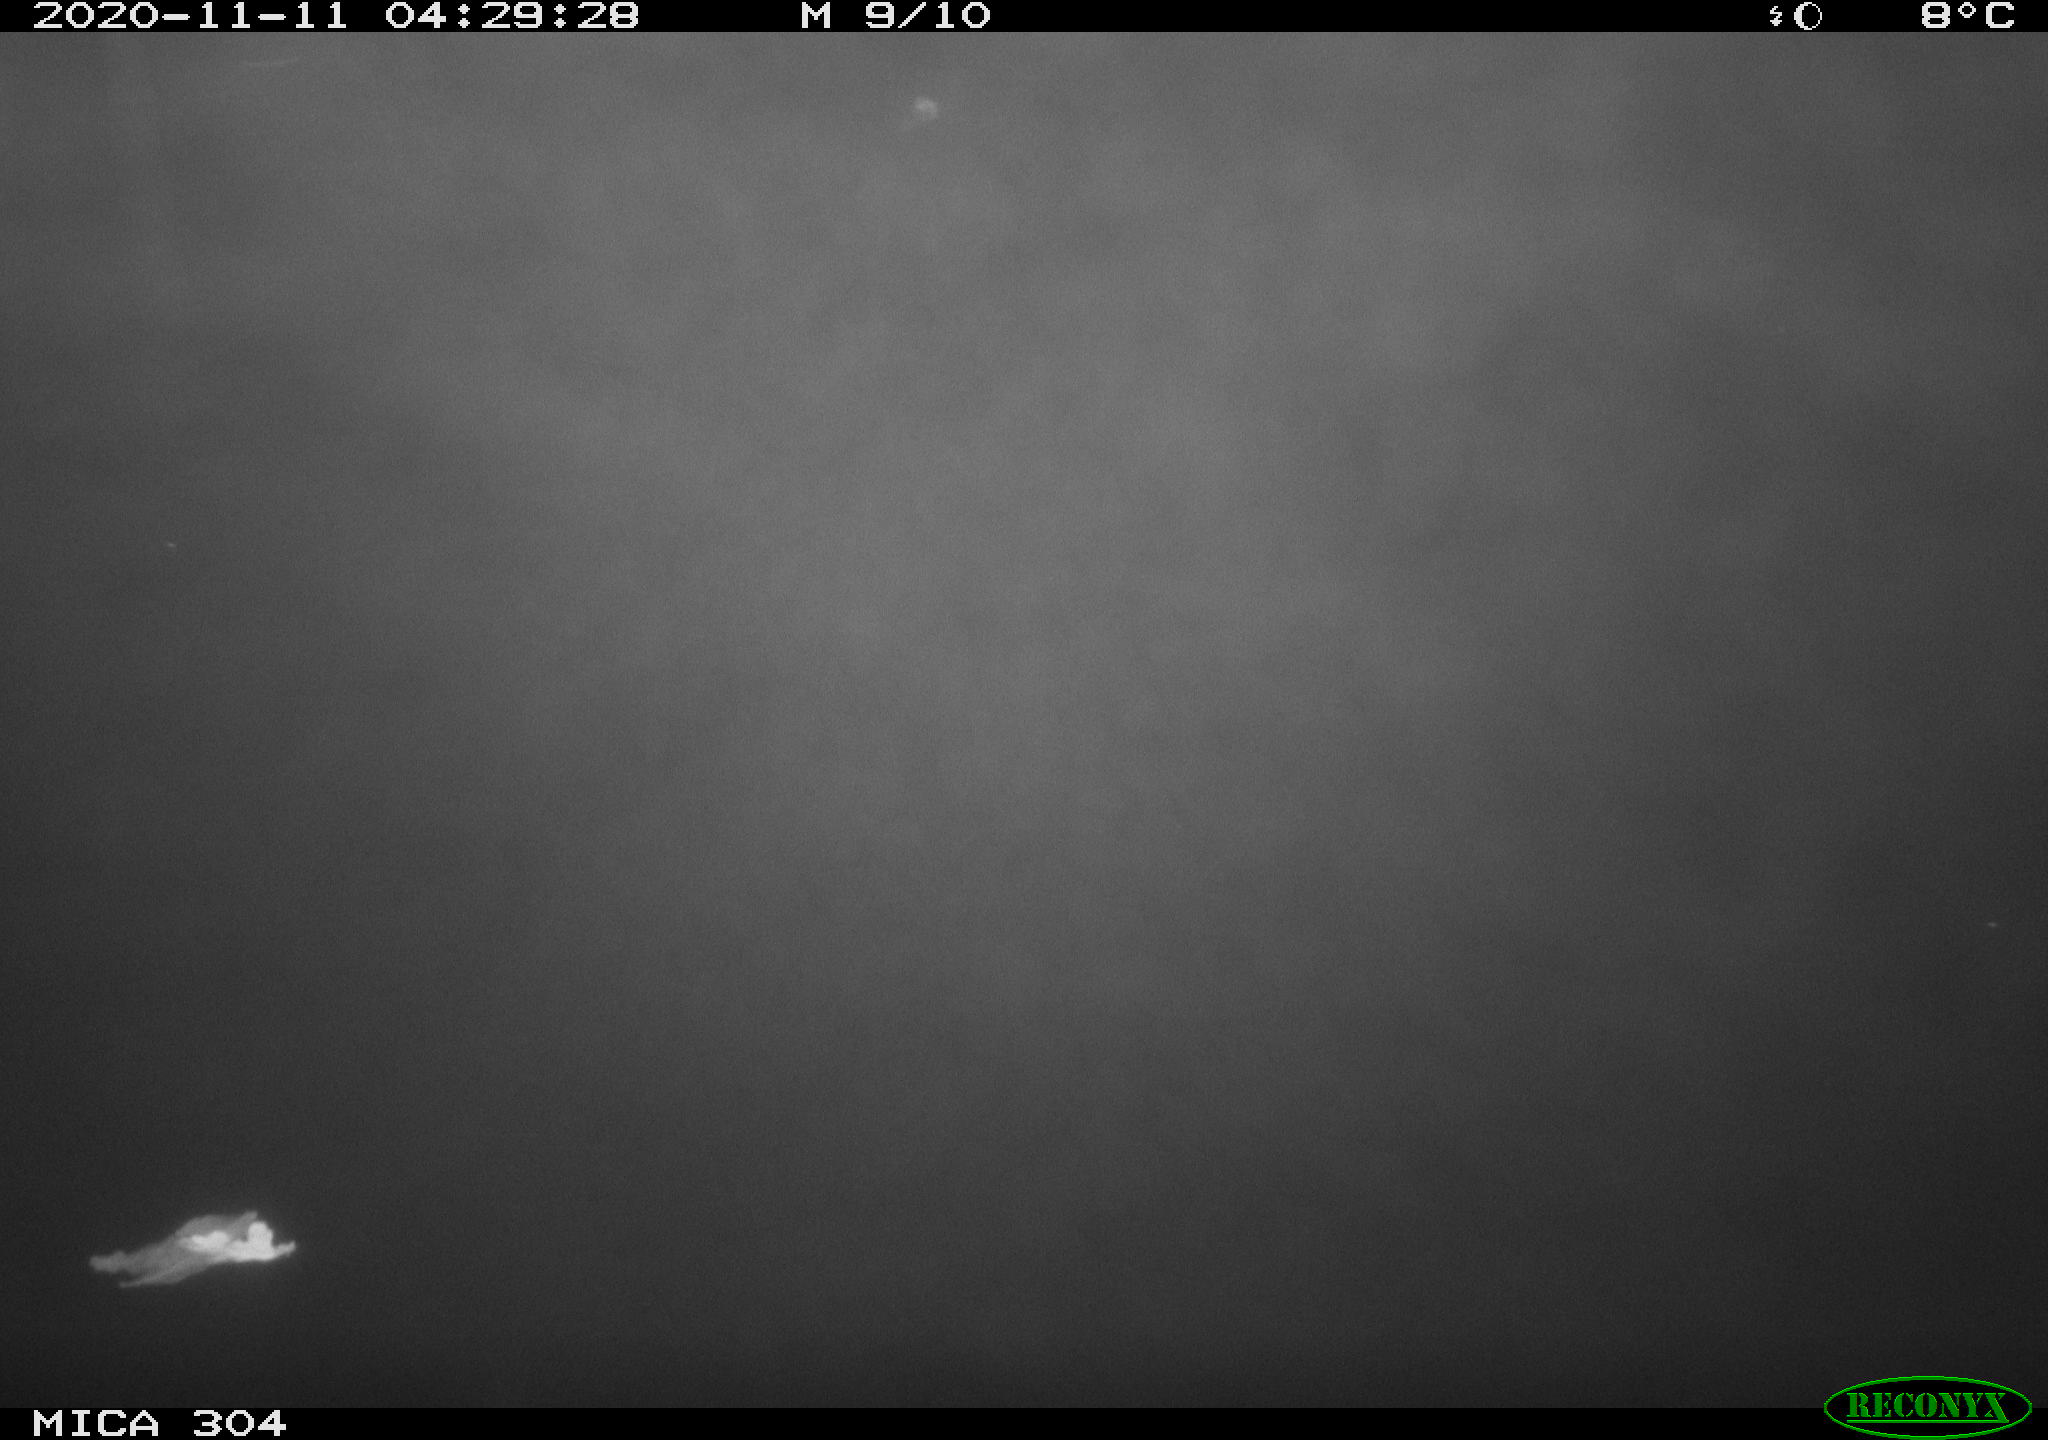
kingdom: Animalia
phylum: Chordata
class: Mammalia
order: Rodentia
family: Muridae
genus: Rattus
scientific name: Rattus norvegicus
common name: Brown rat
